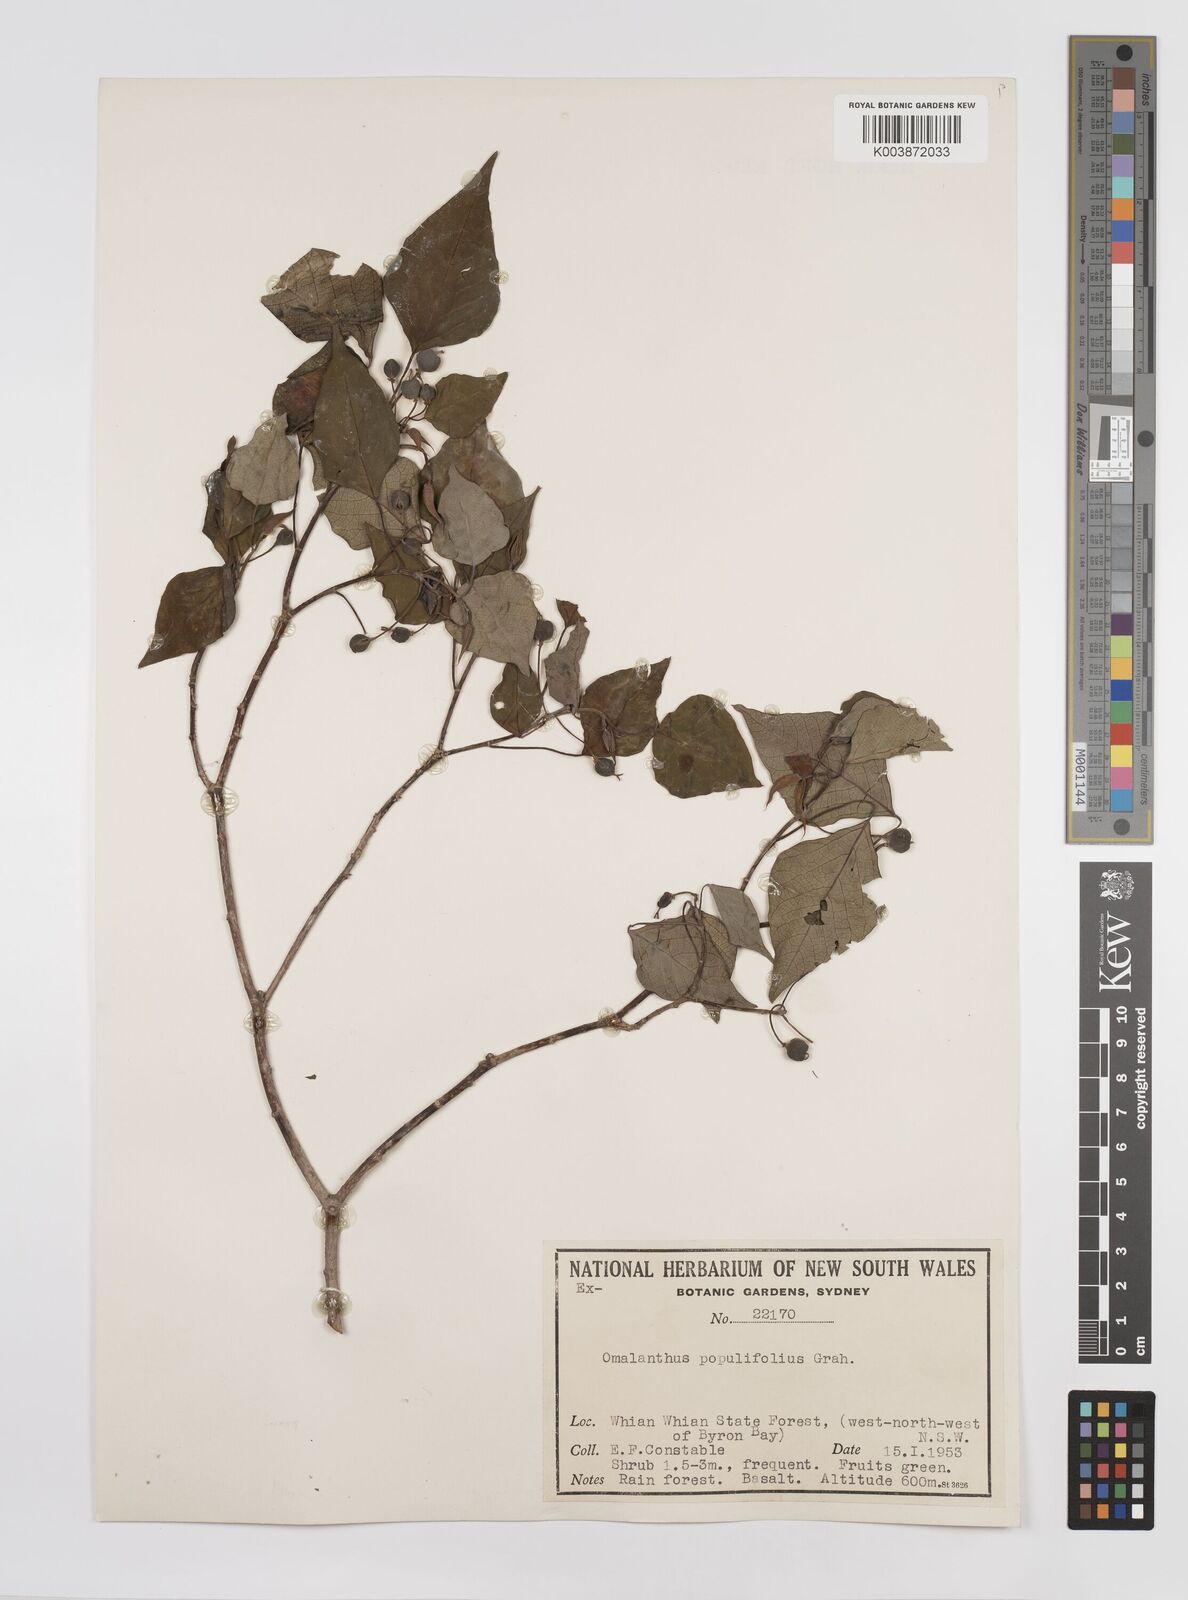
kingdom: Plantae
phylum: Tracheophyta
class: Magnoliopsida
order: Malpighiales
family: Euphorbiaceae
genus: Homalanthus
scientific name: Homalanthus populifolius
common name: Queensland poplar
